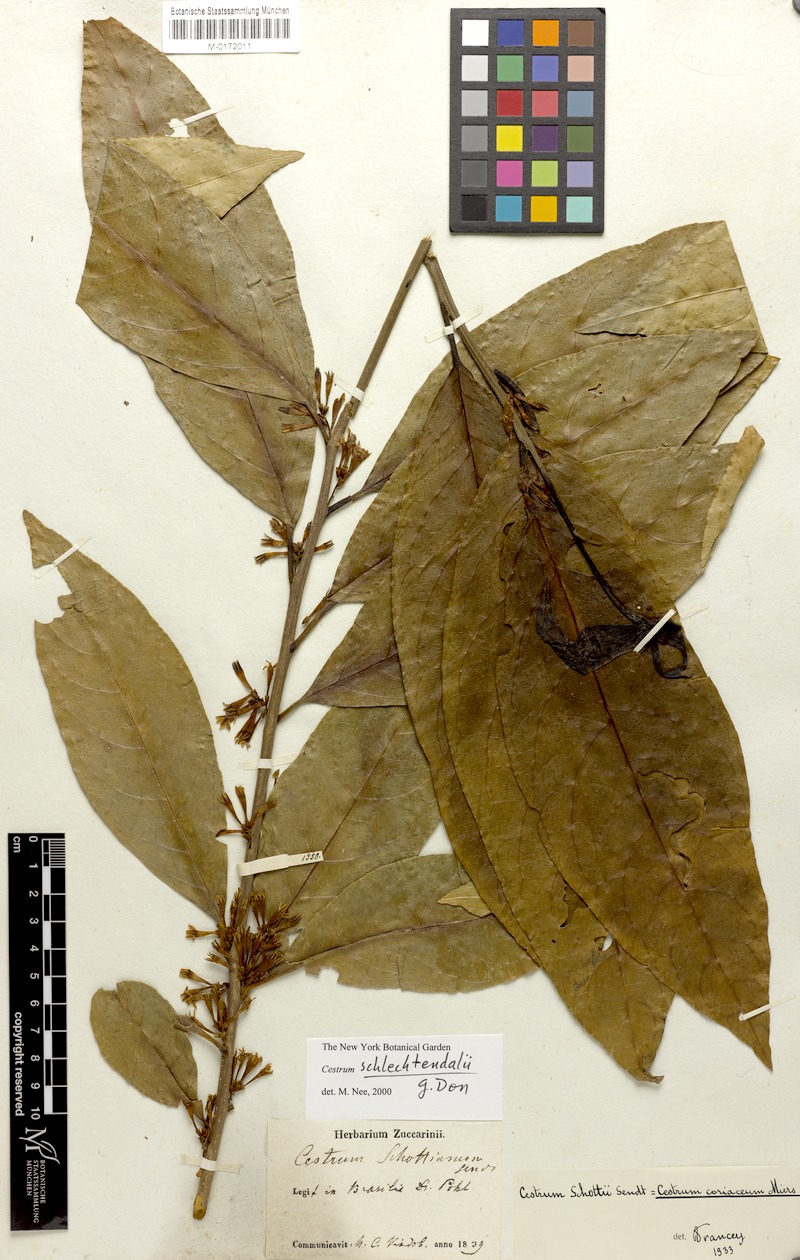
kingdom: Plantae
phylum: Tracheophyta
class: Magnoliopsida
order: Solanales
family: Solanaceae
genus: Cestrum
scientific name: Cestrum schlechtendalii
